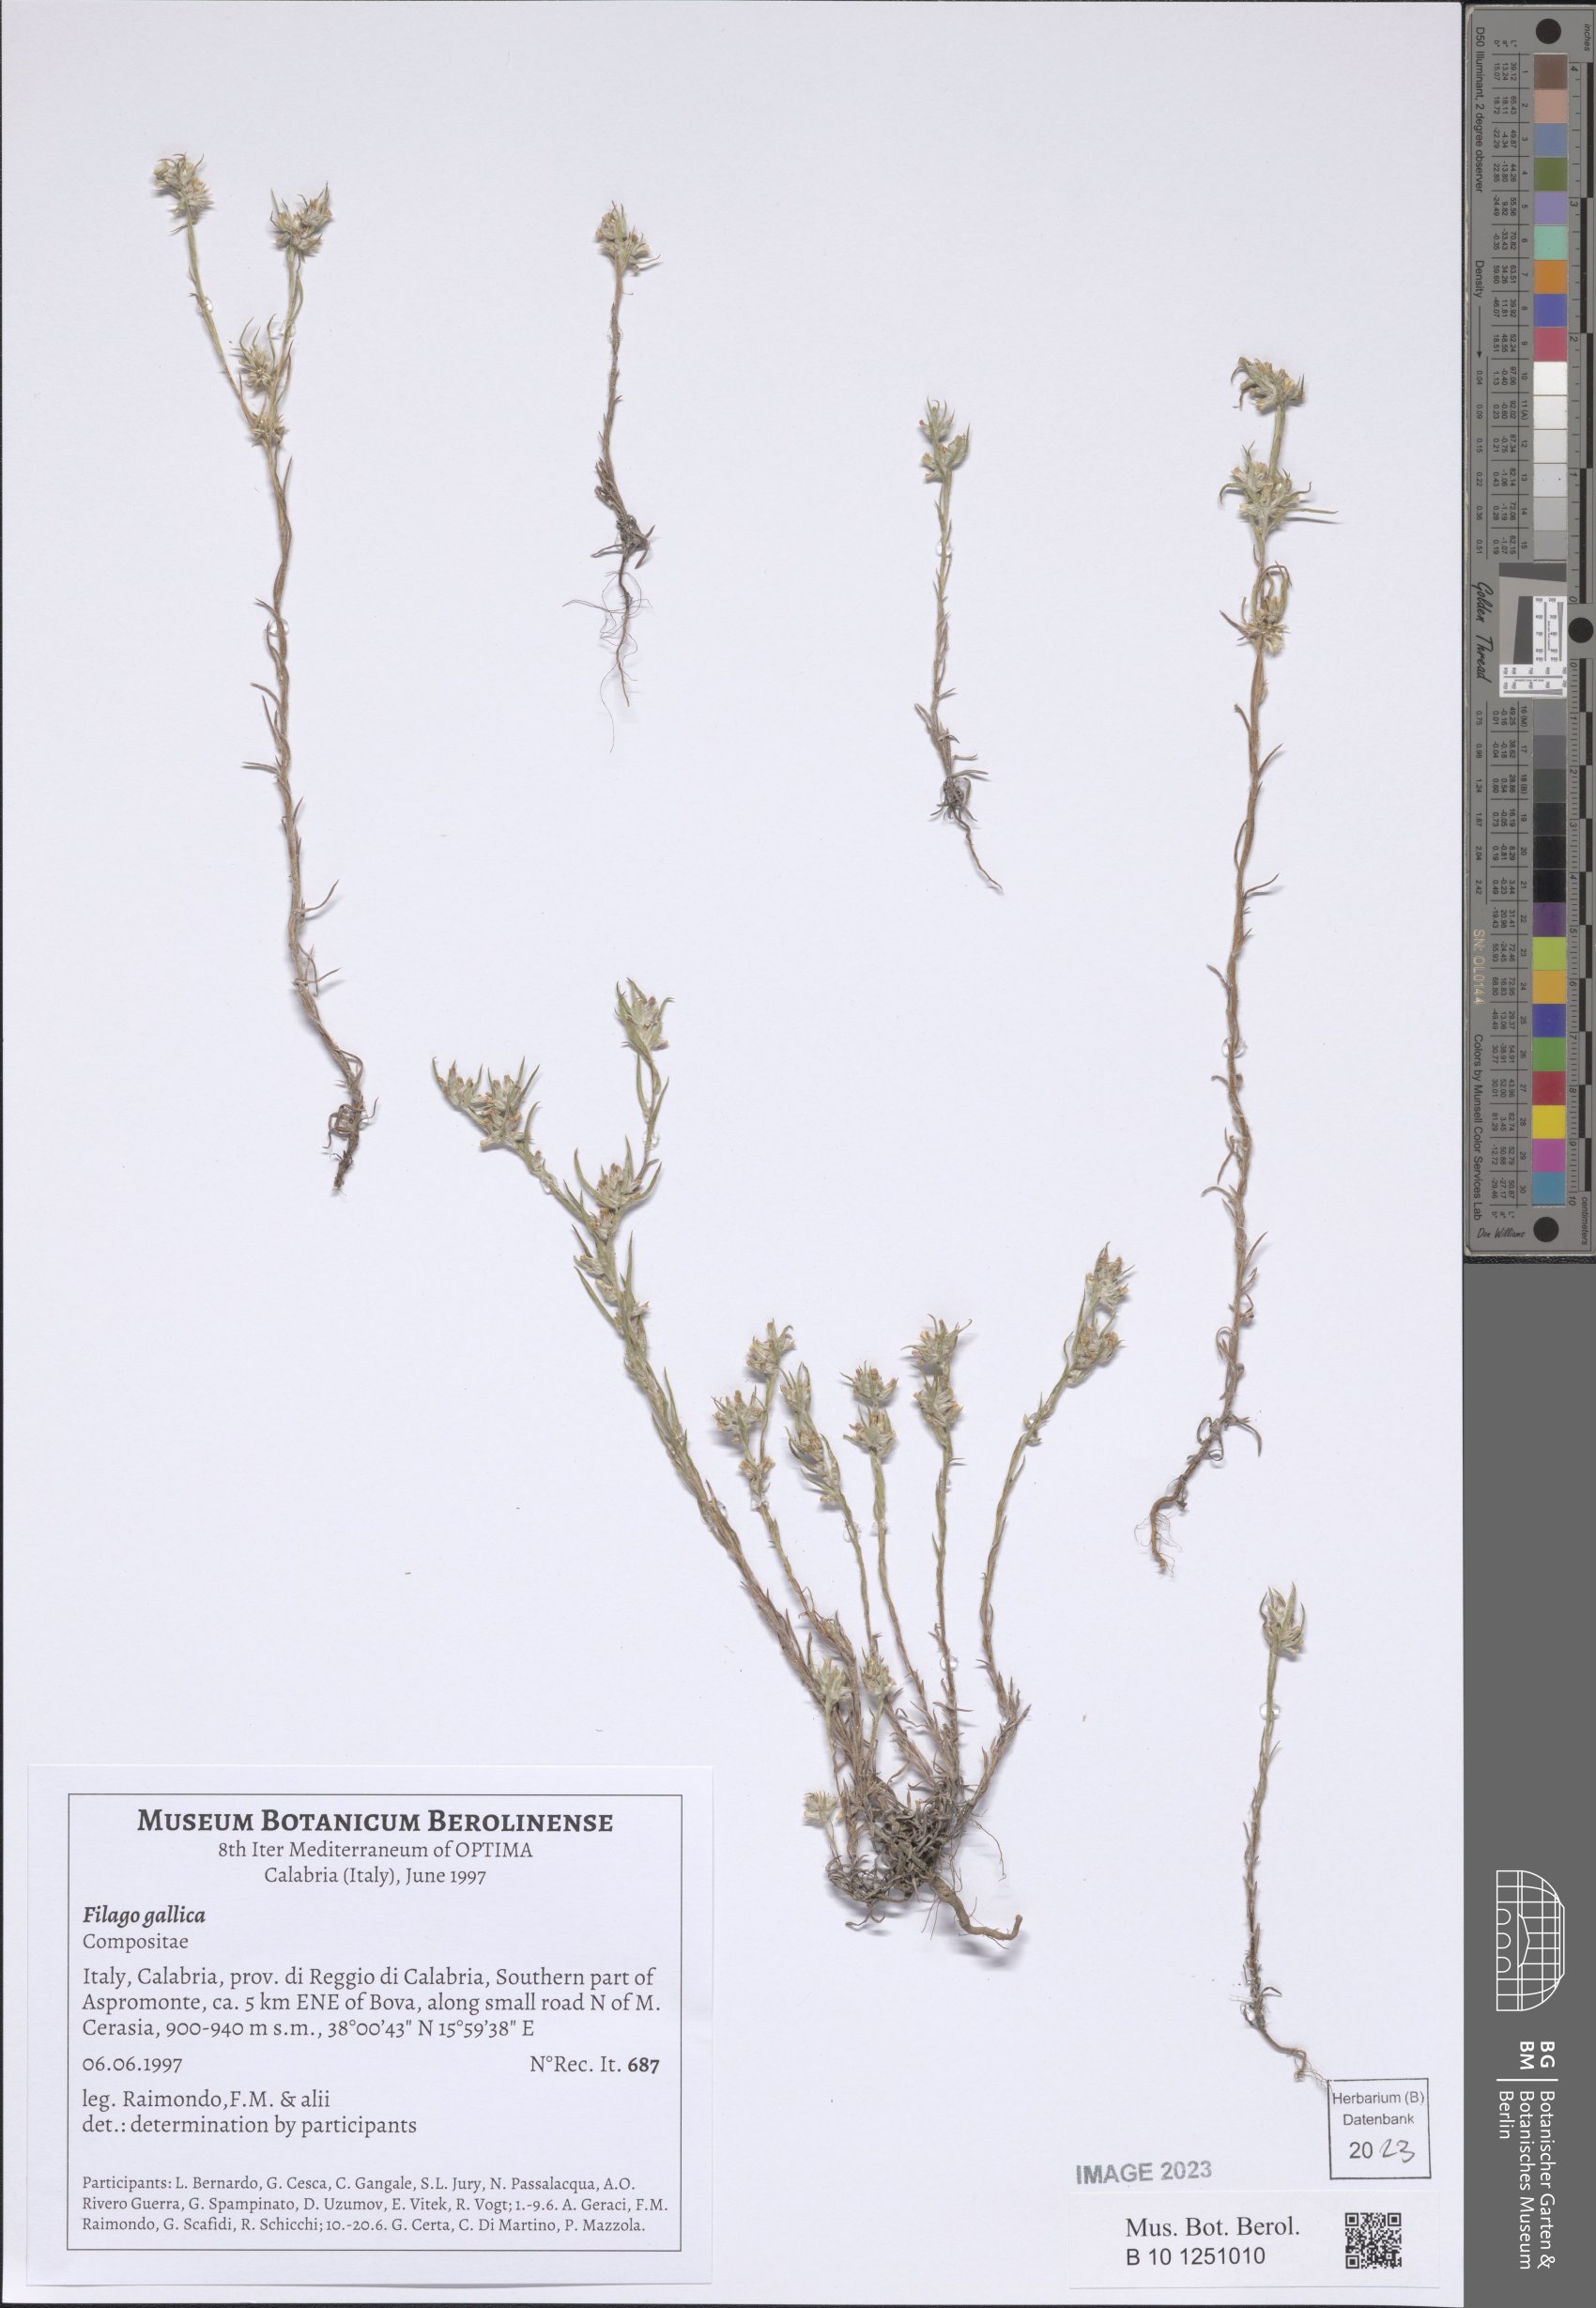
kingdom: Plantae
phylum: Tracheophyta
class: Magnoliopsida
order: Asterales
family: Asteraceae
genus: Logfia
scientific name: Logfia gallica
